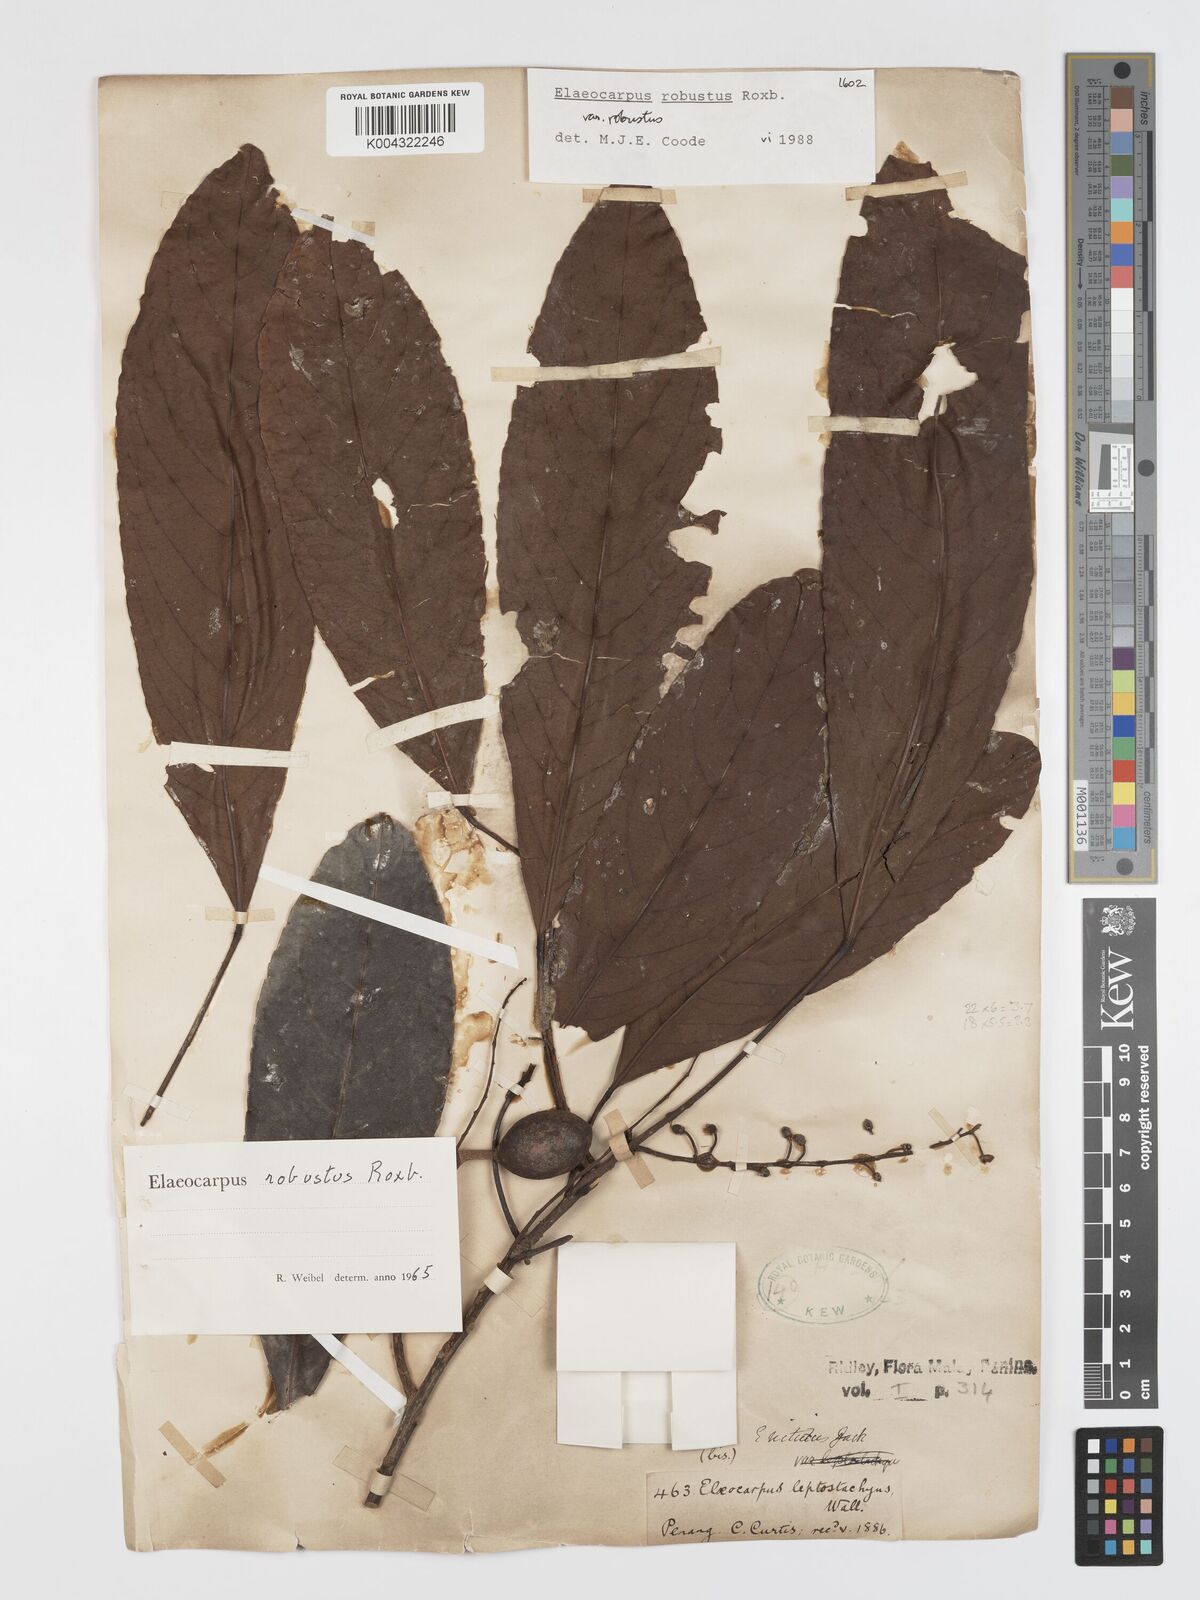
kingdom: Plantae
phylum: Tracheophyta
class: Magnoliopsida
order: Oxalidales
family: Elaeocarpaceae
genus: Elaeocarpus
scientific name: Elaeocarpus robustus
